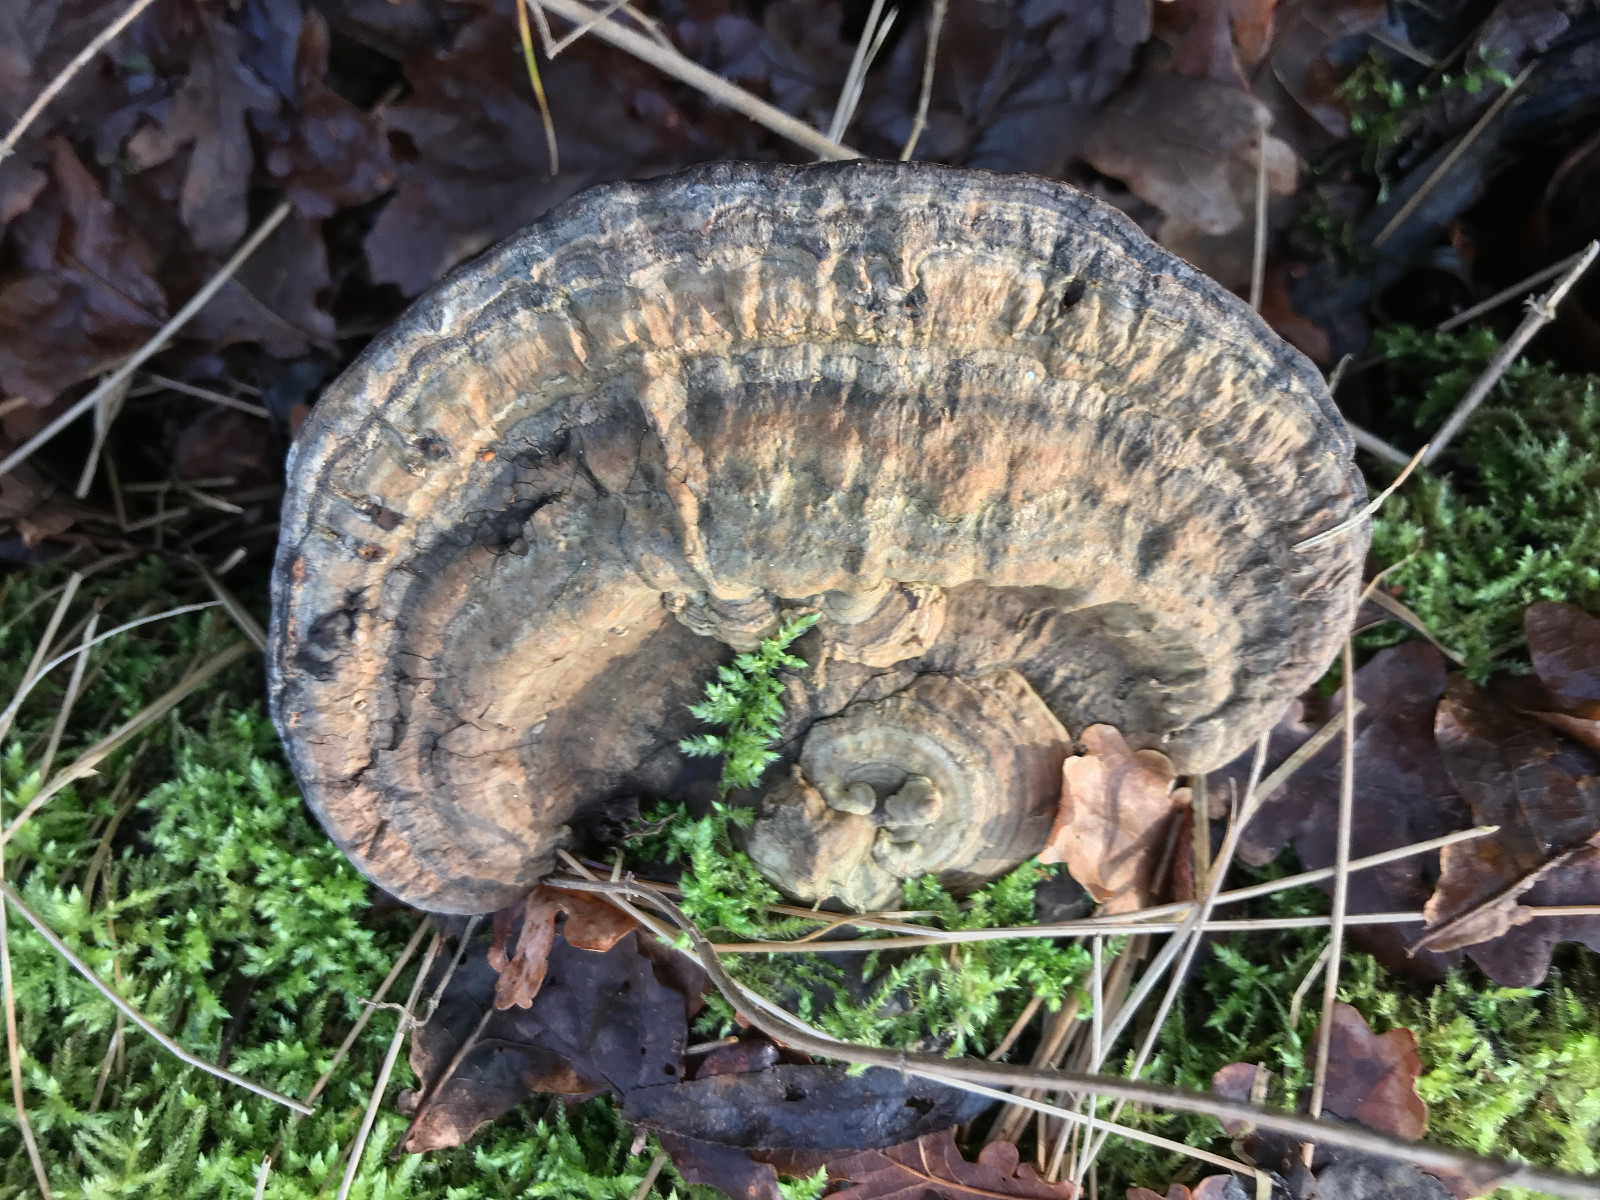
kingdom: Fungi
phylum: Basidiomycota
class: Agaricomycetes
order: Polyporales
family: Polyporaceae
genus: Ganoderma
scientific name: Ganoderma applanatum
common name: flad lakporesvamp
